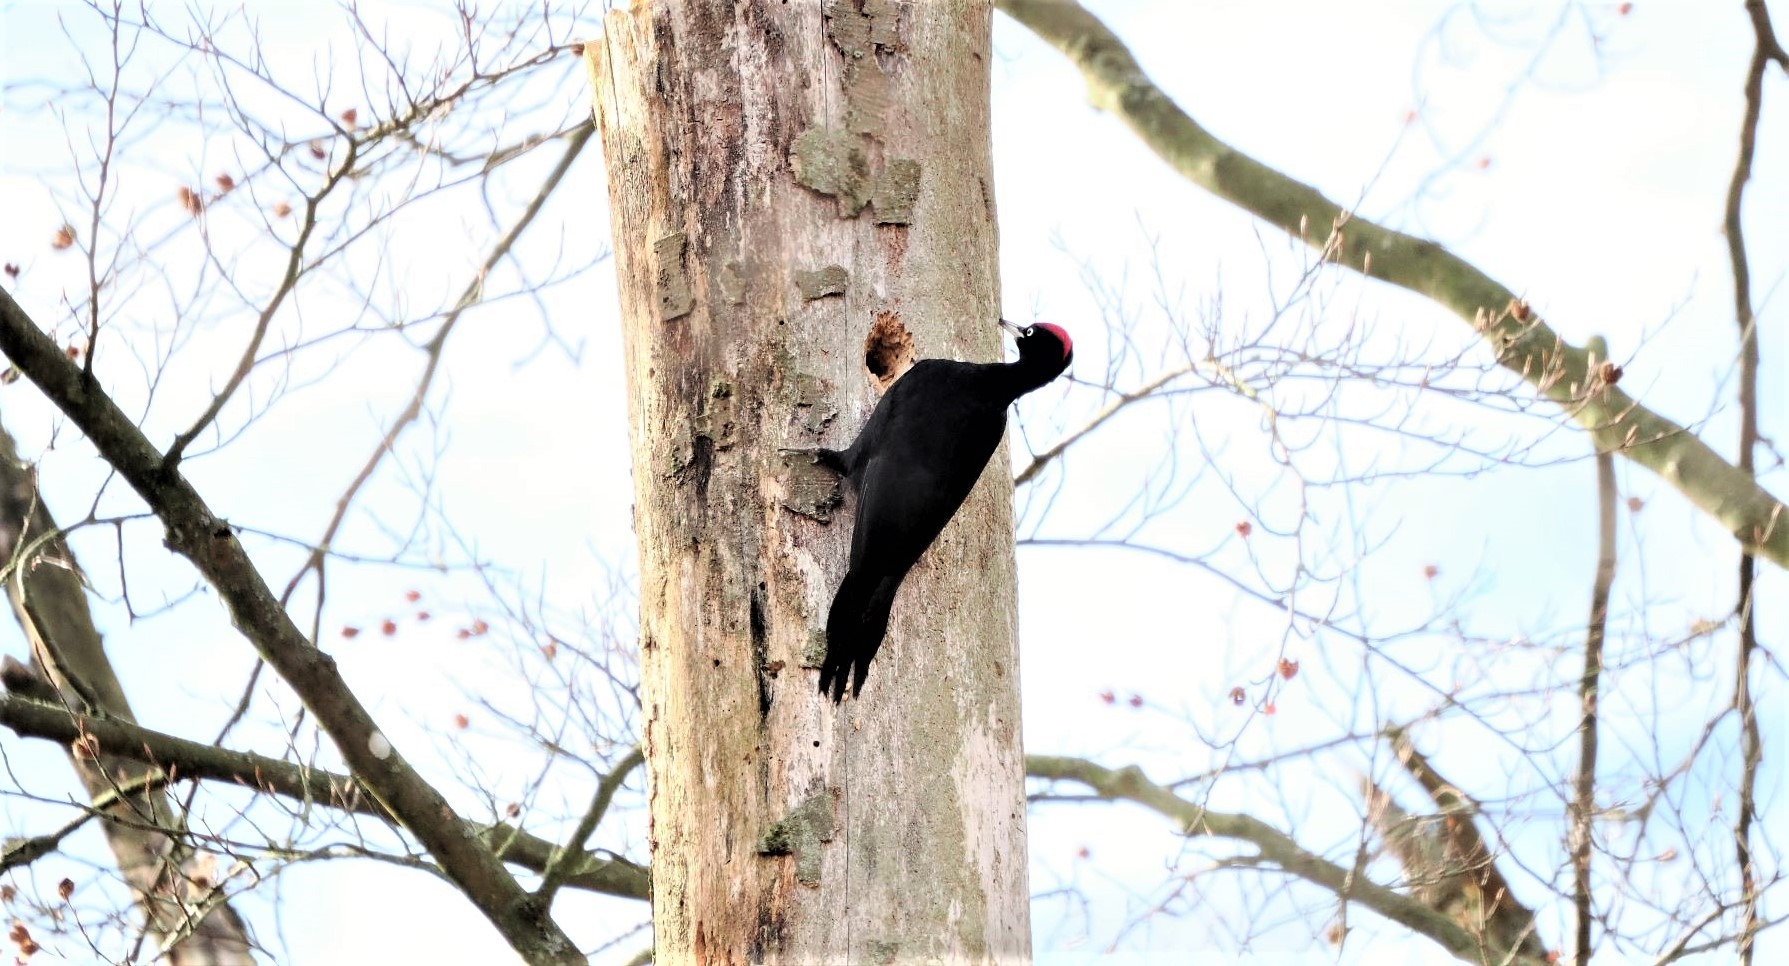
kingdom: Animalia
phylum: Chordata
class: Aves
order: Piciformes
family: Picidae
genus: Dryocopus
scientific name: Dryocopus martius
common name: Sortspætte
